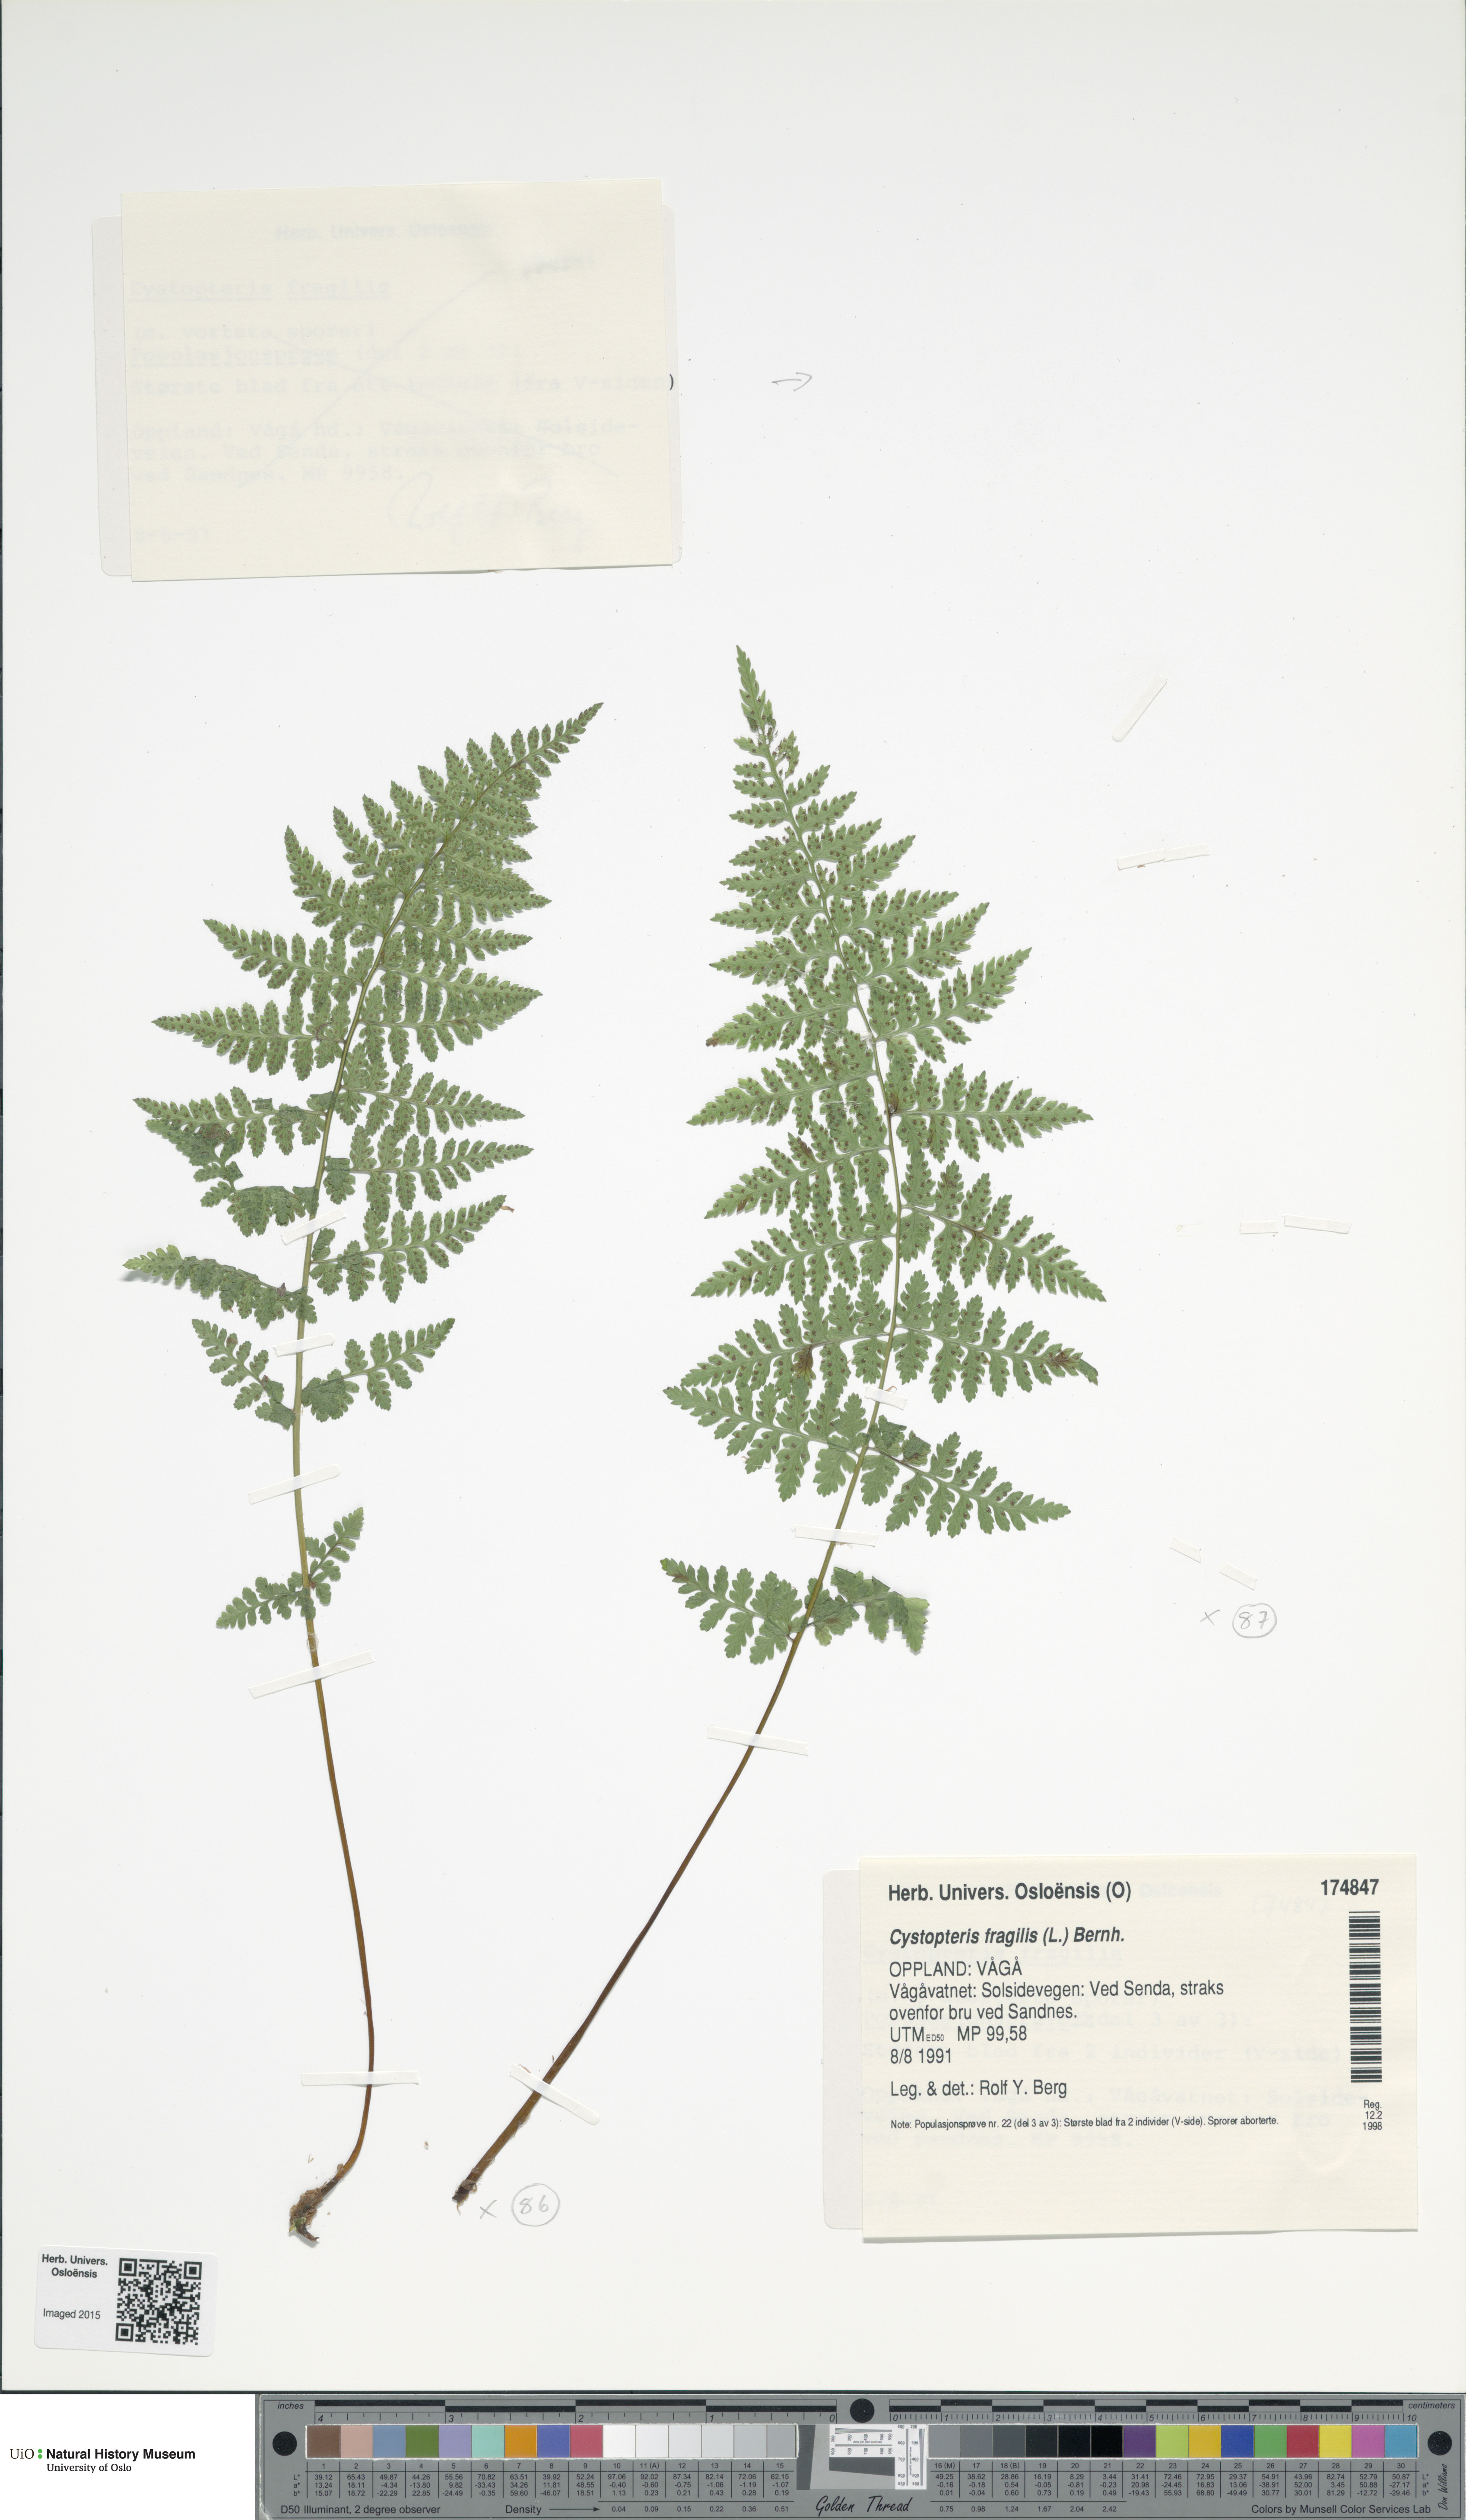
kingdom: Plantae
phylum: Tracheophyta
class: Polypodiopsida
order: Polypodiales
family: Cystopteridaceae
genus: Cystopteris
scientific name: Cystopteris fragilis
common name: Brittle bladder fern
